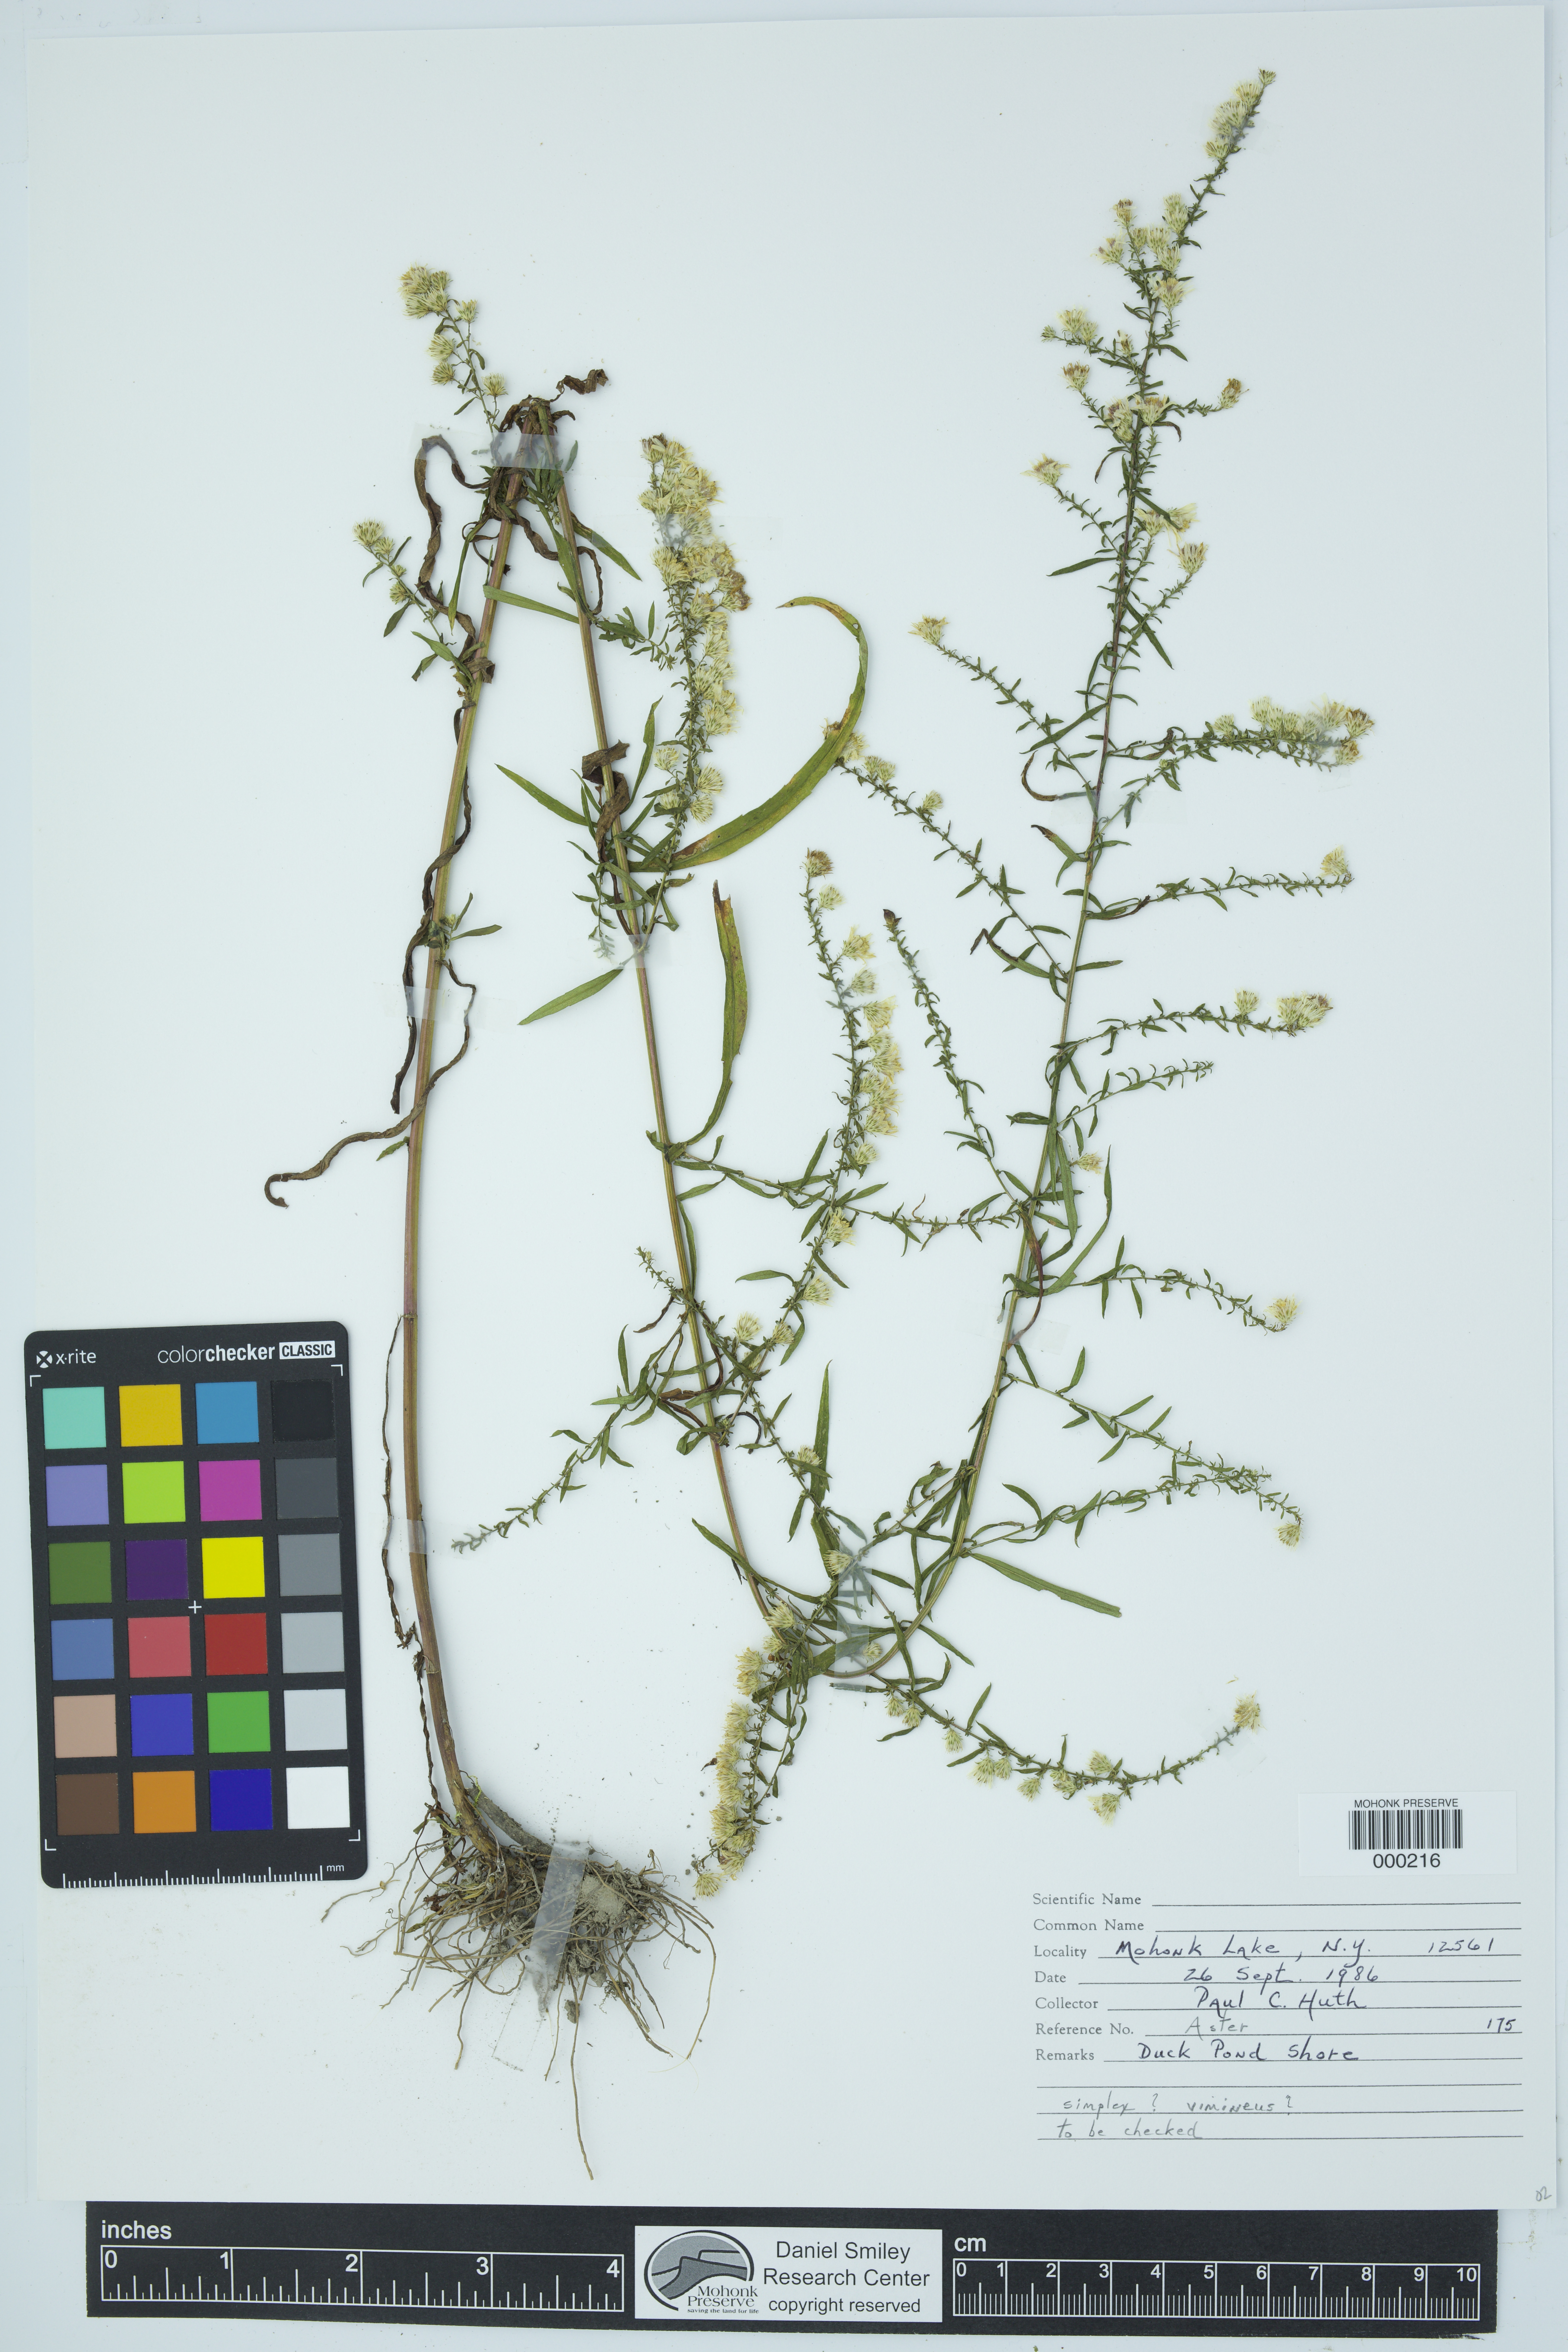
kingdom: Plantae
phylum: Tracheophyta
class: Magnoliopsida
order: Asterales
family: Asteraceae
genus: Aster
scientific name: Aster
